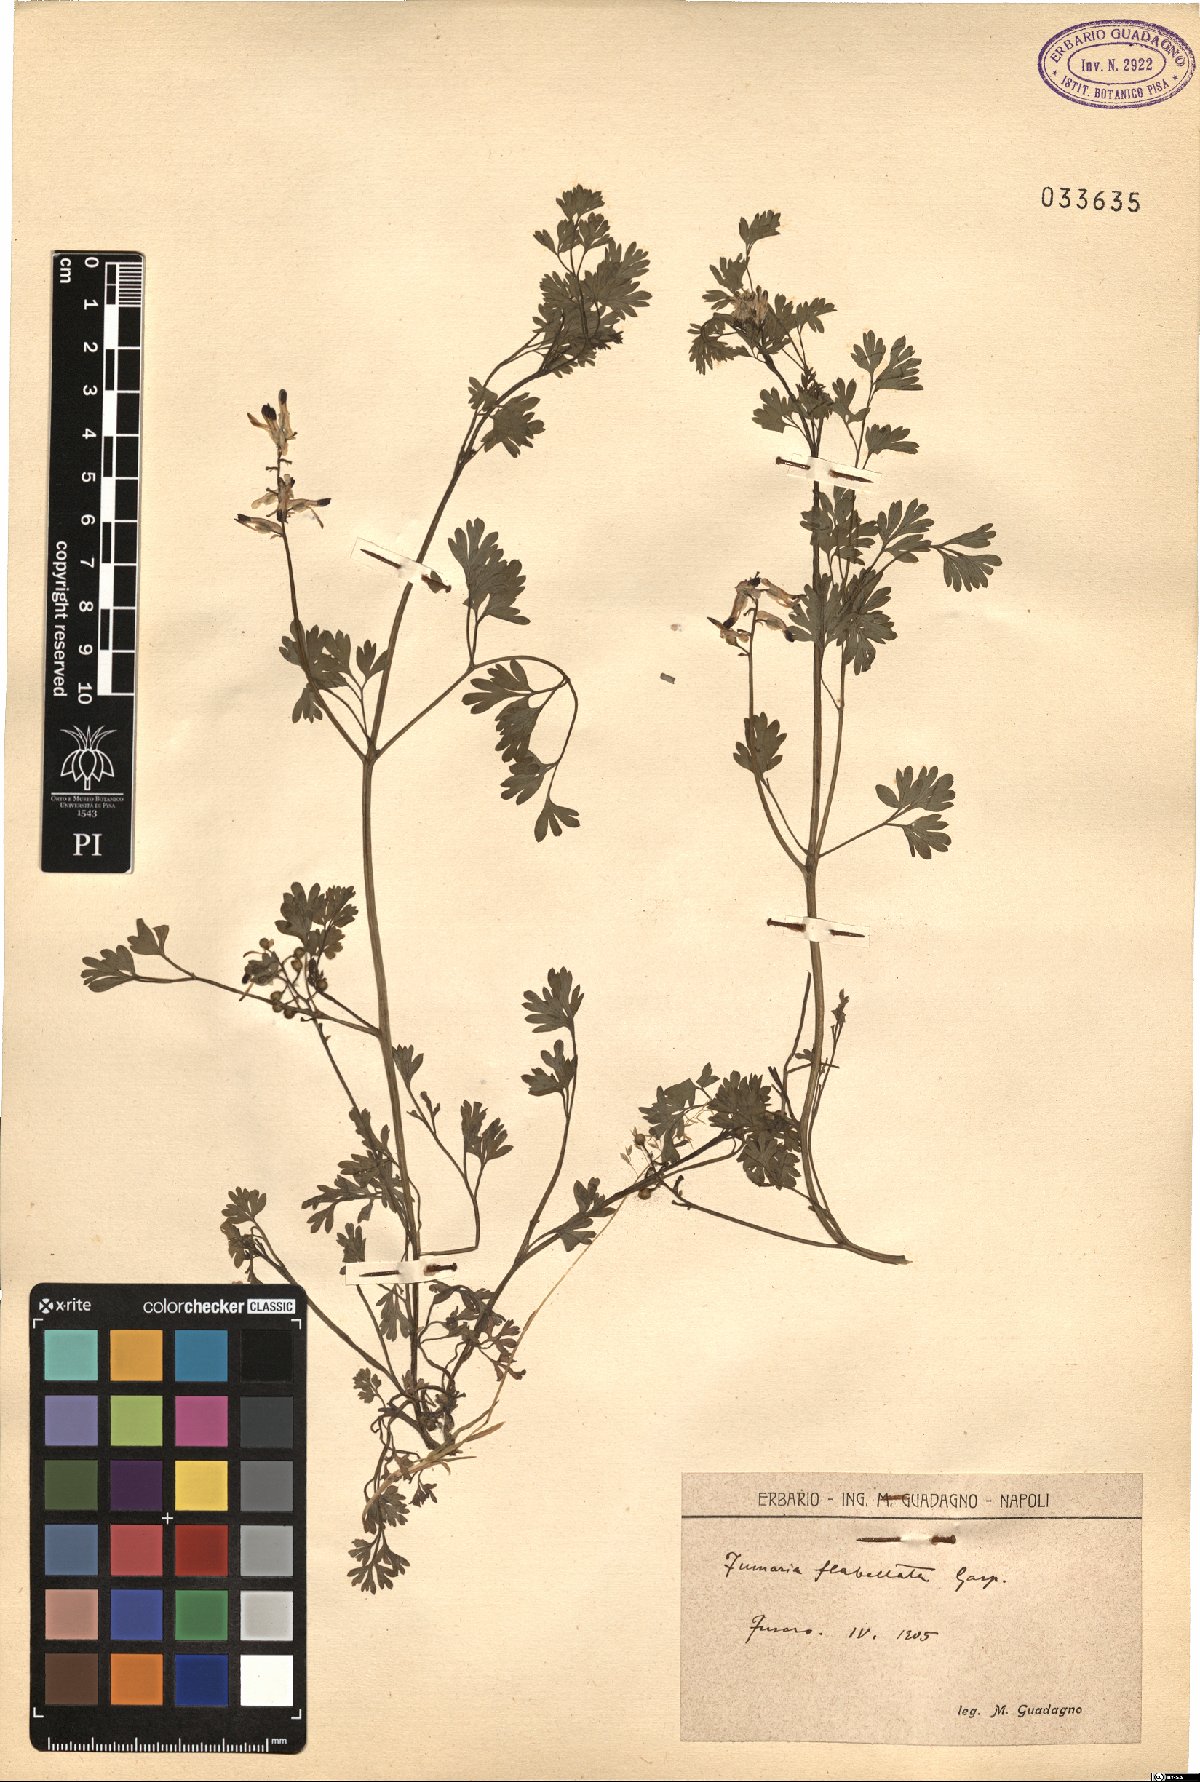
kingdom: Plantae
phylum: Tracheophyta
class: Magnoliopsida
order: Ranunculales
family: Papaveraceae
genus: Fumaria
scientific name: Fumaria flabellata
